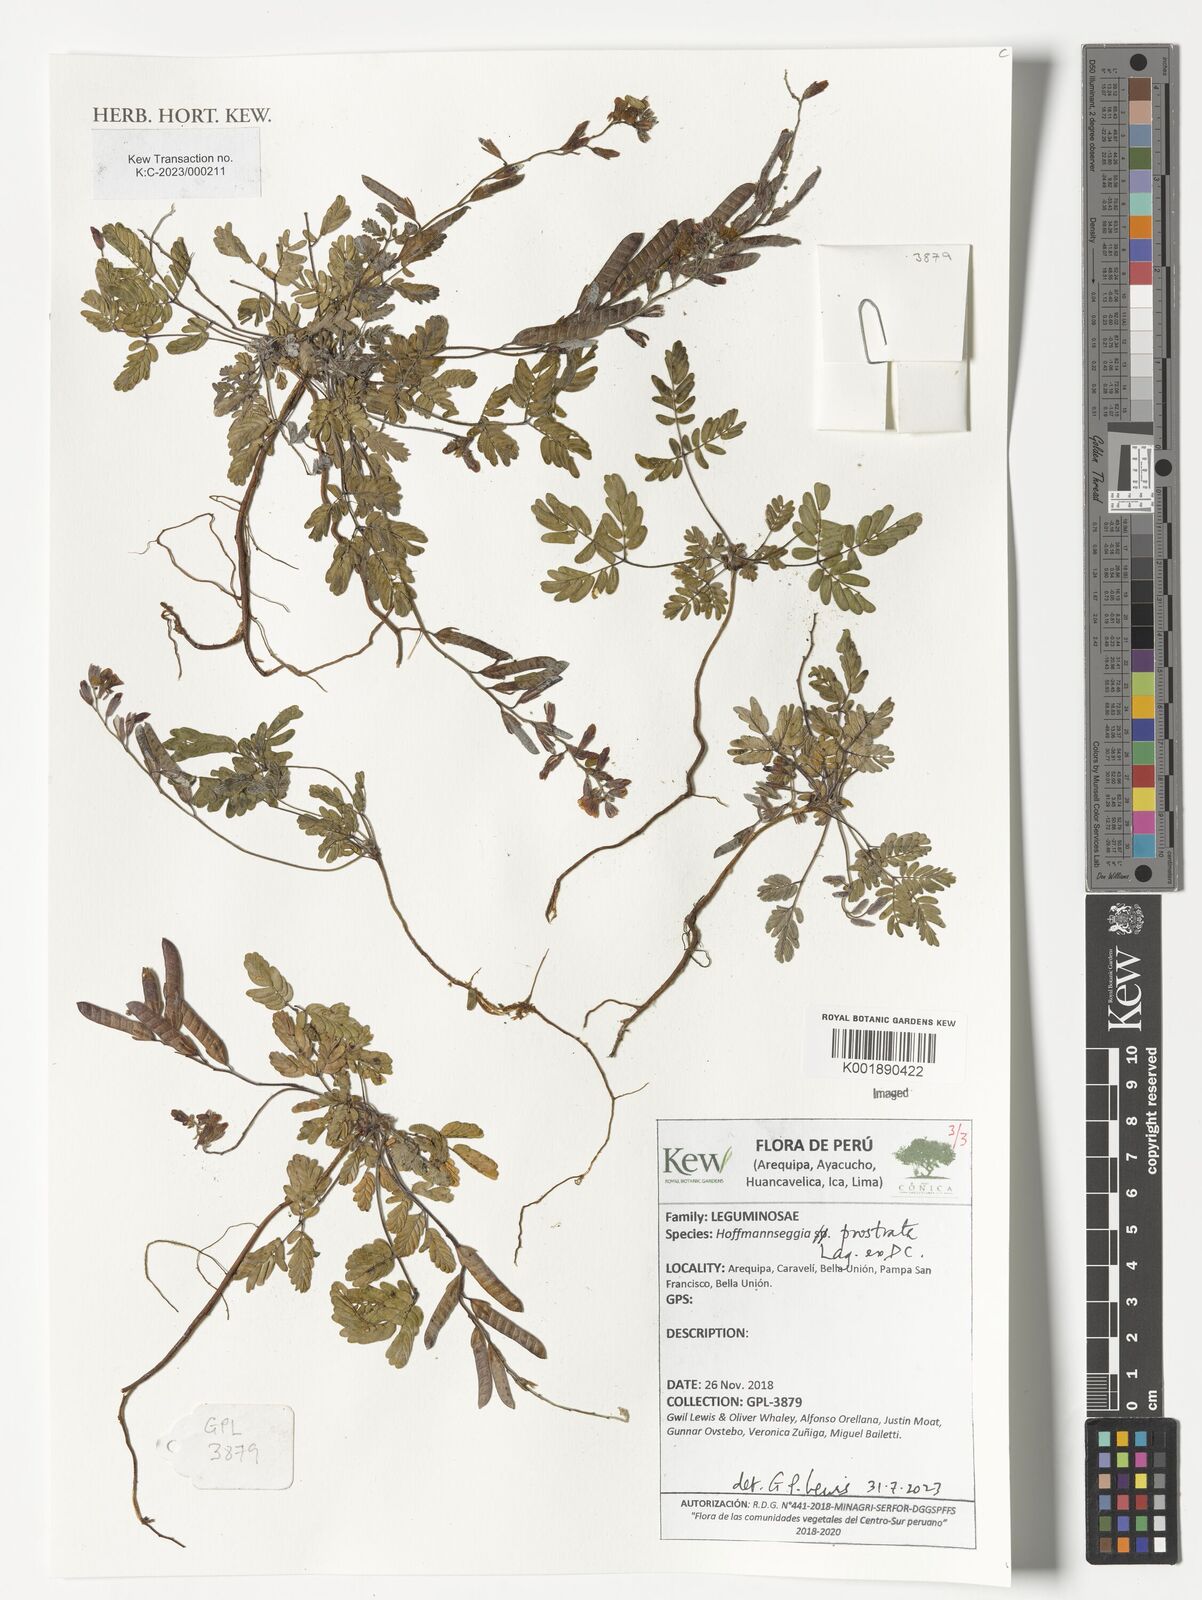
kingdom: Plantae
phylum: Tracheophyta
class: Magnoliopsida
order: Fabales
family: Fabaceae
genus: Hoffmannseggia
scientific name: Hoffmannseggia prostrata
